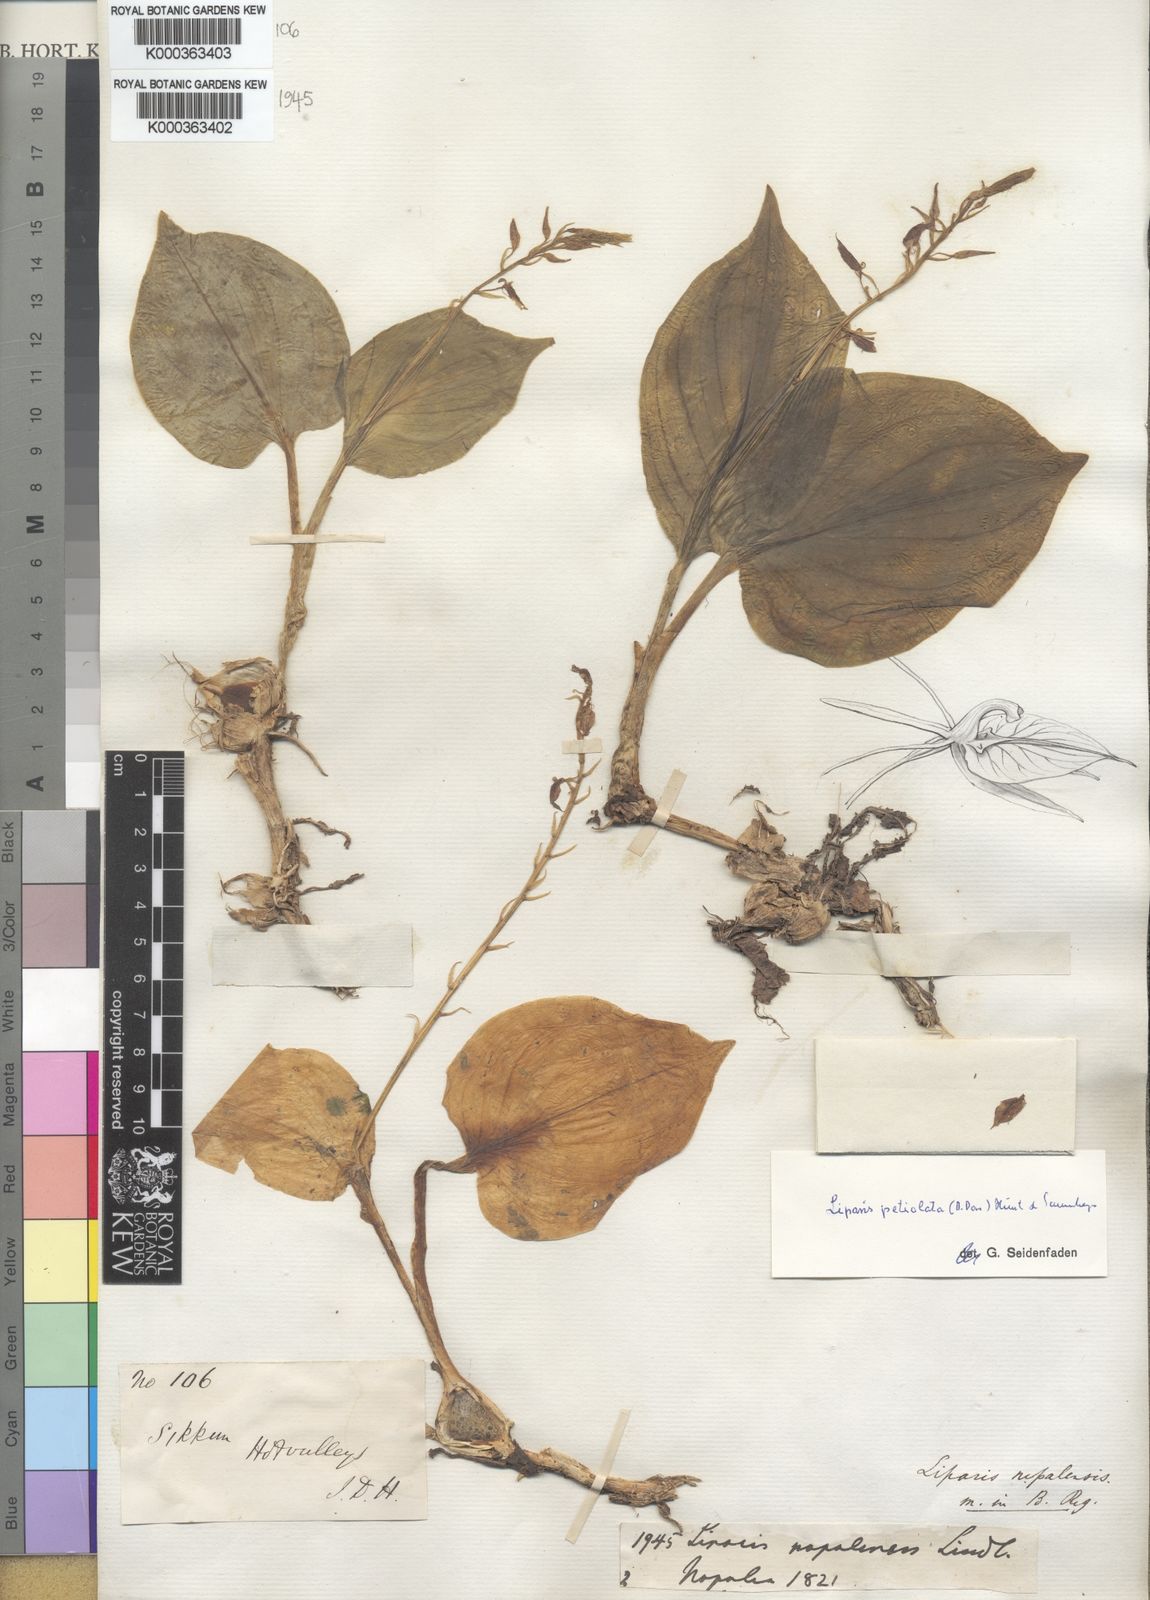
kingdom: Plantae
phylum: Tracheophyta
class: Liliopsida
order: Asparagales
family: Orchidaceae
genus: Liparis
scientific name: Liparis petiolata
